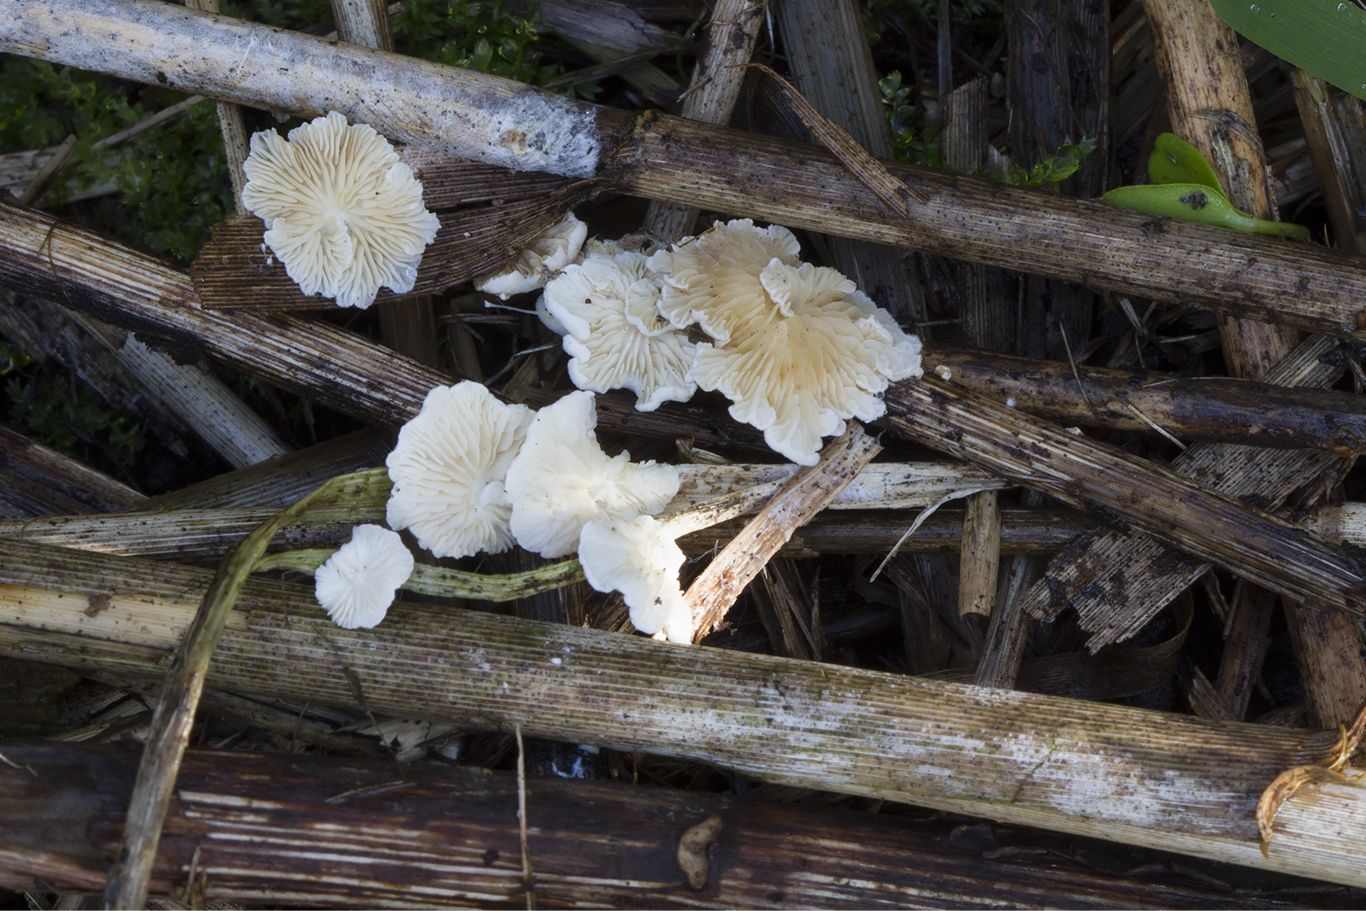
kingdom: Fungi
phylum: Basidiomycota
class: Agaricomycetes
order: Agaricales
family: Crepidotaceae
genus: Crepidotus
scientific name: Crepidotus epibryus
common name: førne-muslingesvamp
